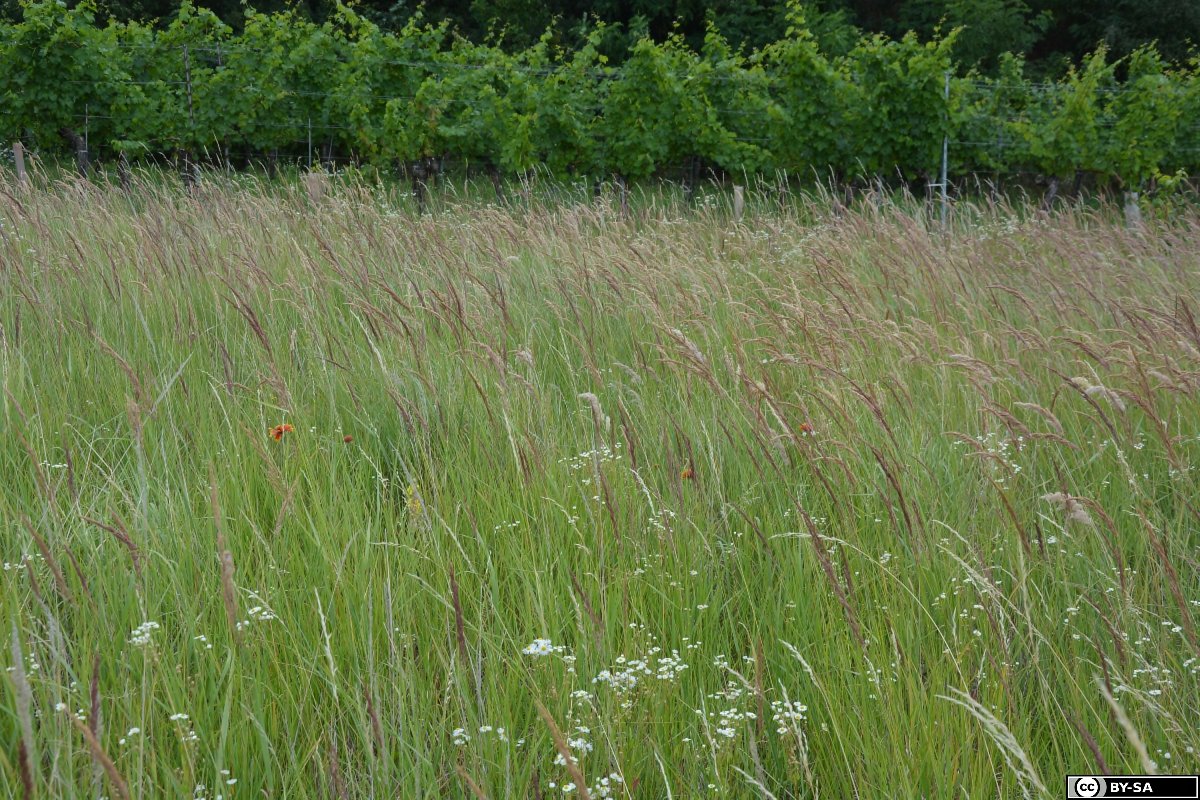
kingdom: Plantae
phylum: Tracheophyta
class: Magnoliopsida
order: Asterales
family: Asteraceae
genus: Gaillardia
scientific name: Gaillardia grandiflora
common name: Blanket flower
